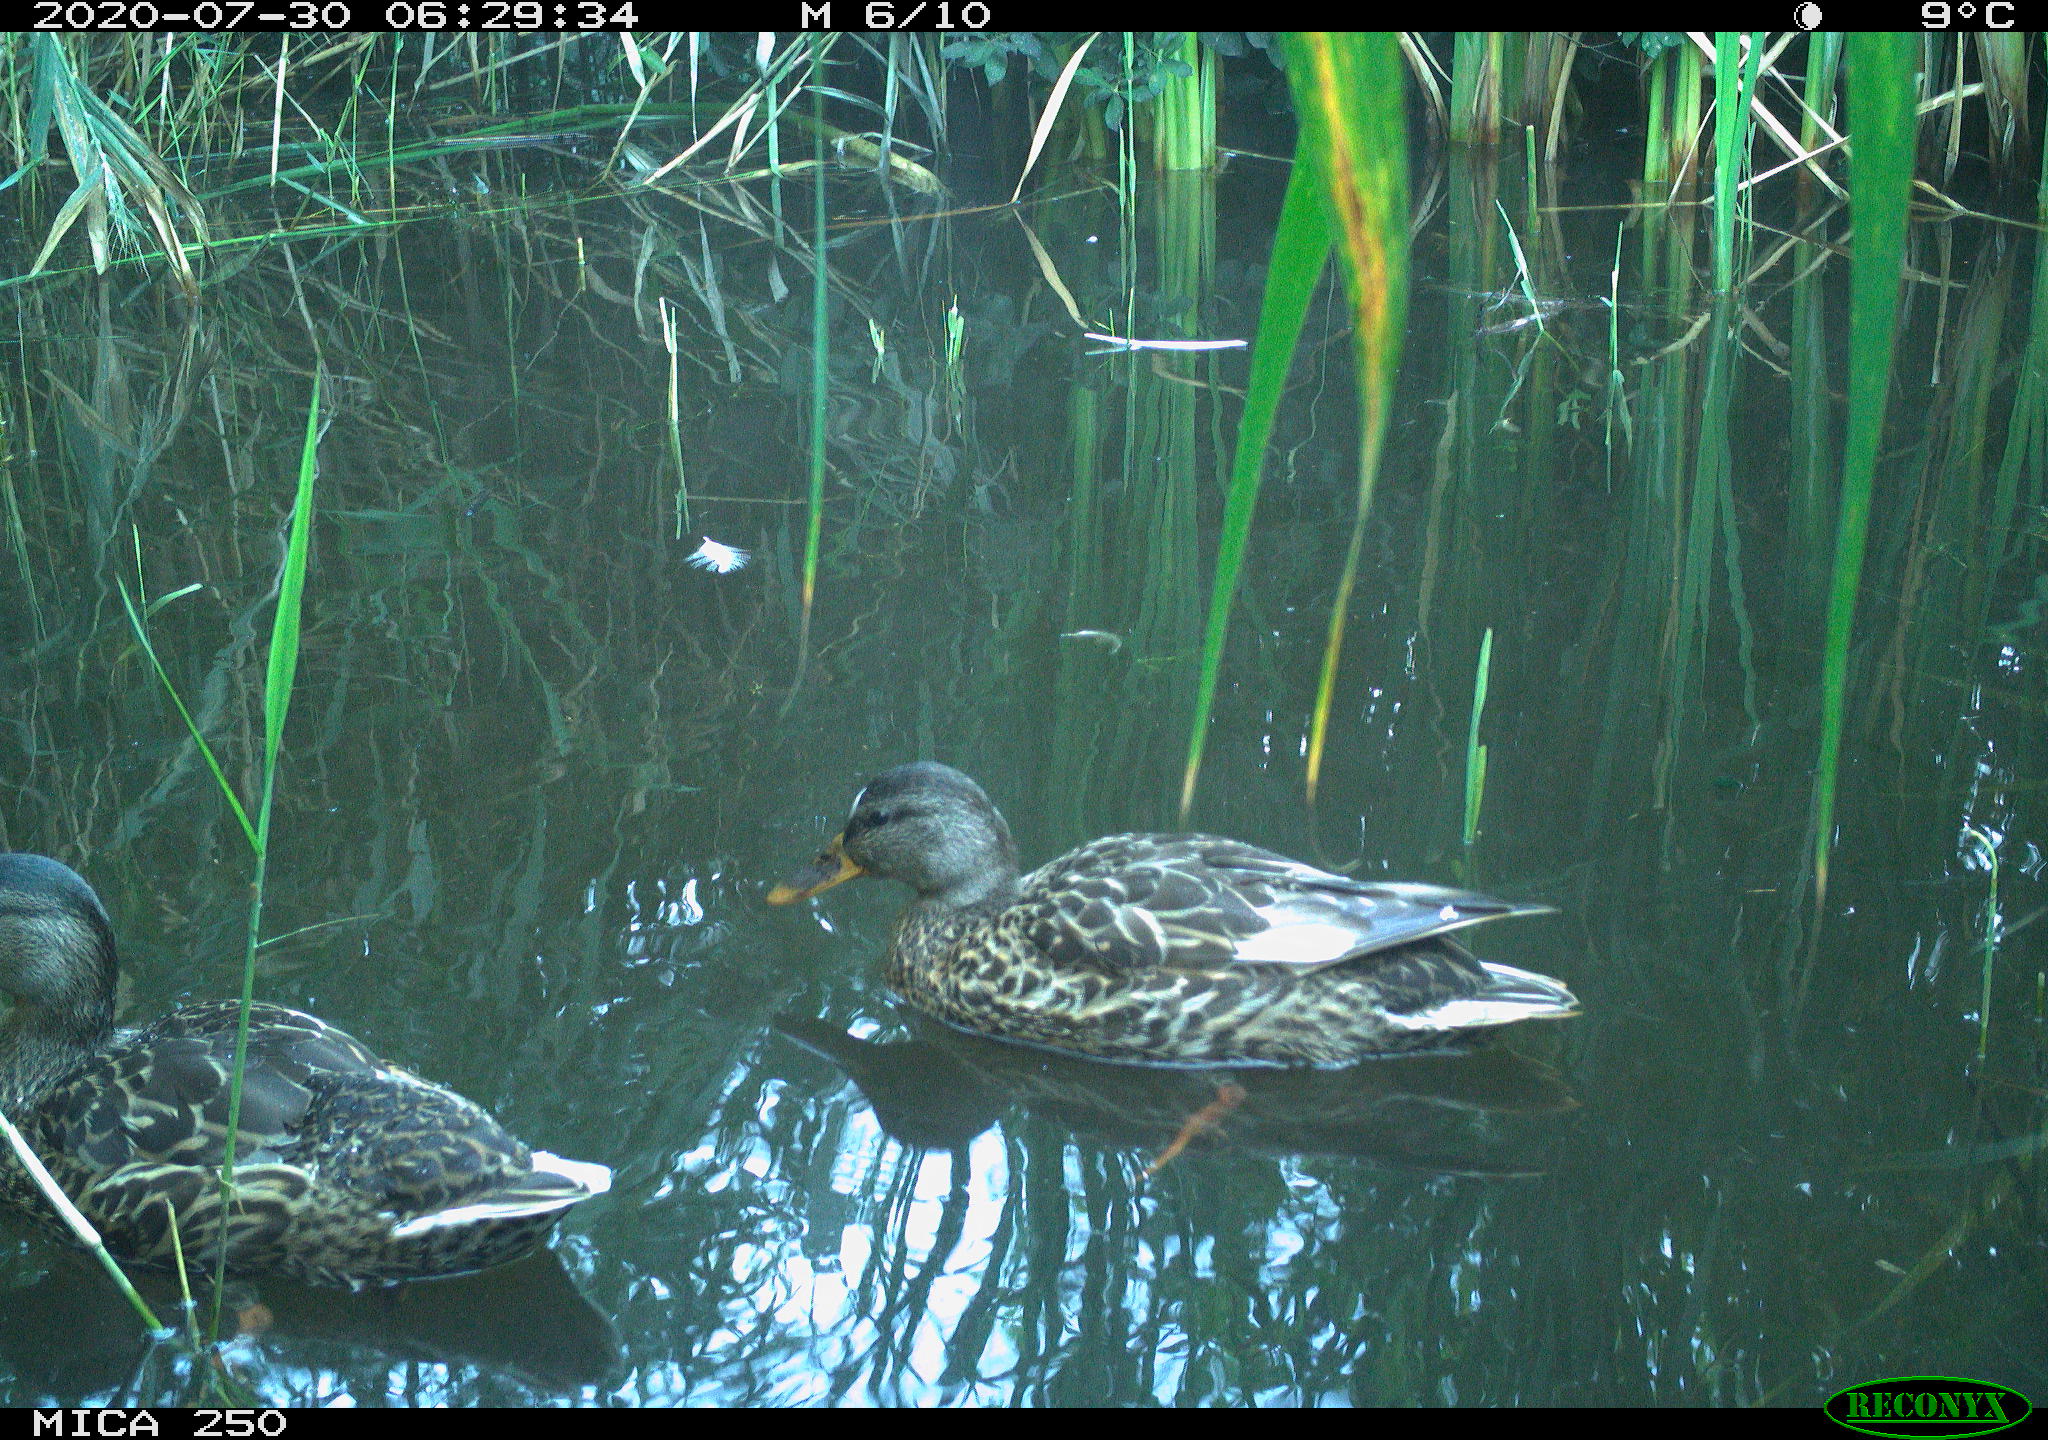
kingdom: Animalia
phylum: Chordata
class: Aves
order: Anseriformes
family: Anatidae
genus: Anas
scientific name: Anas platyrhynchos
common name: Mallard
